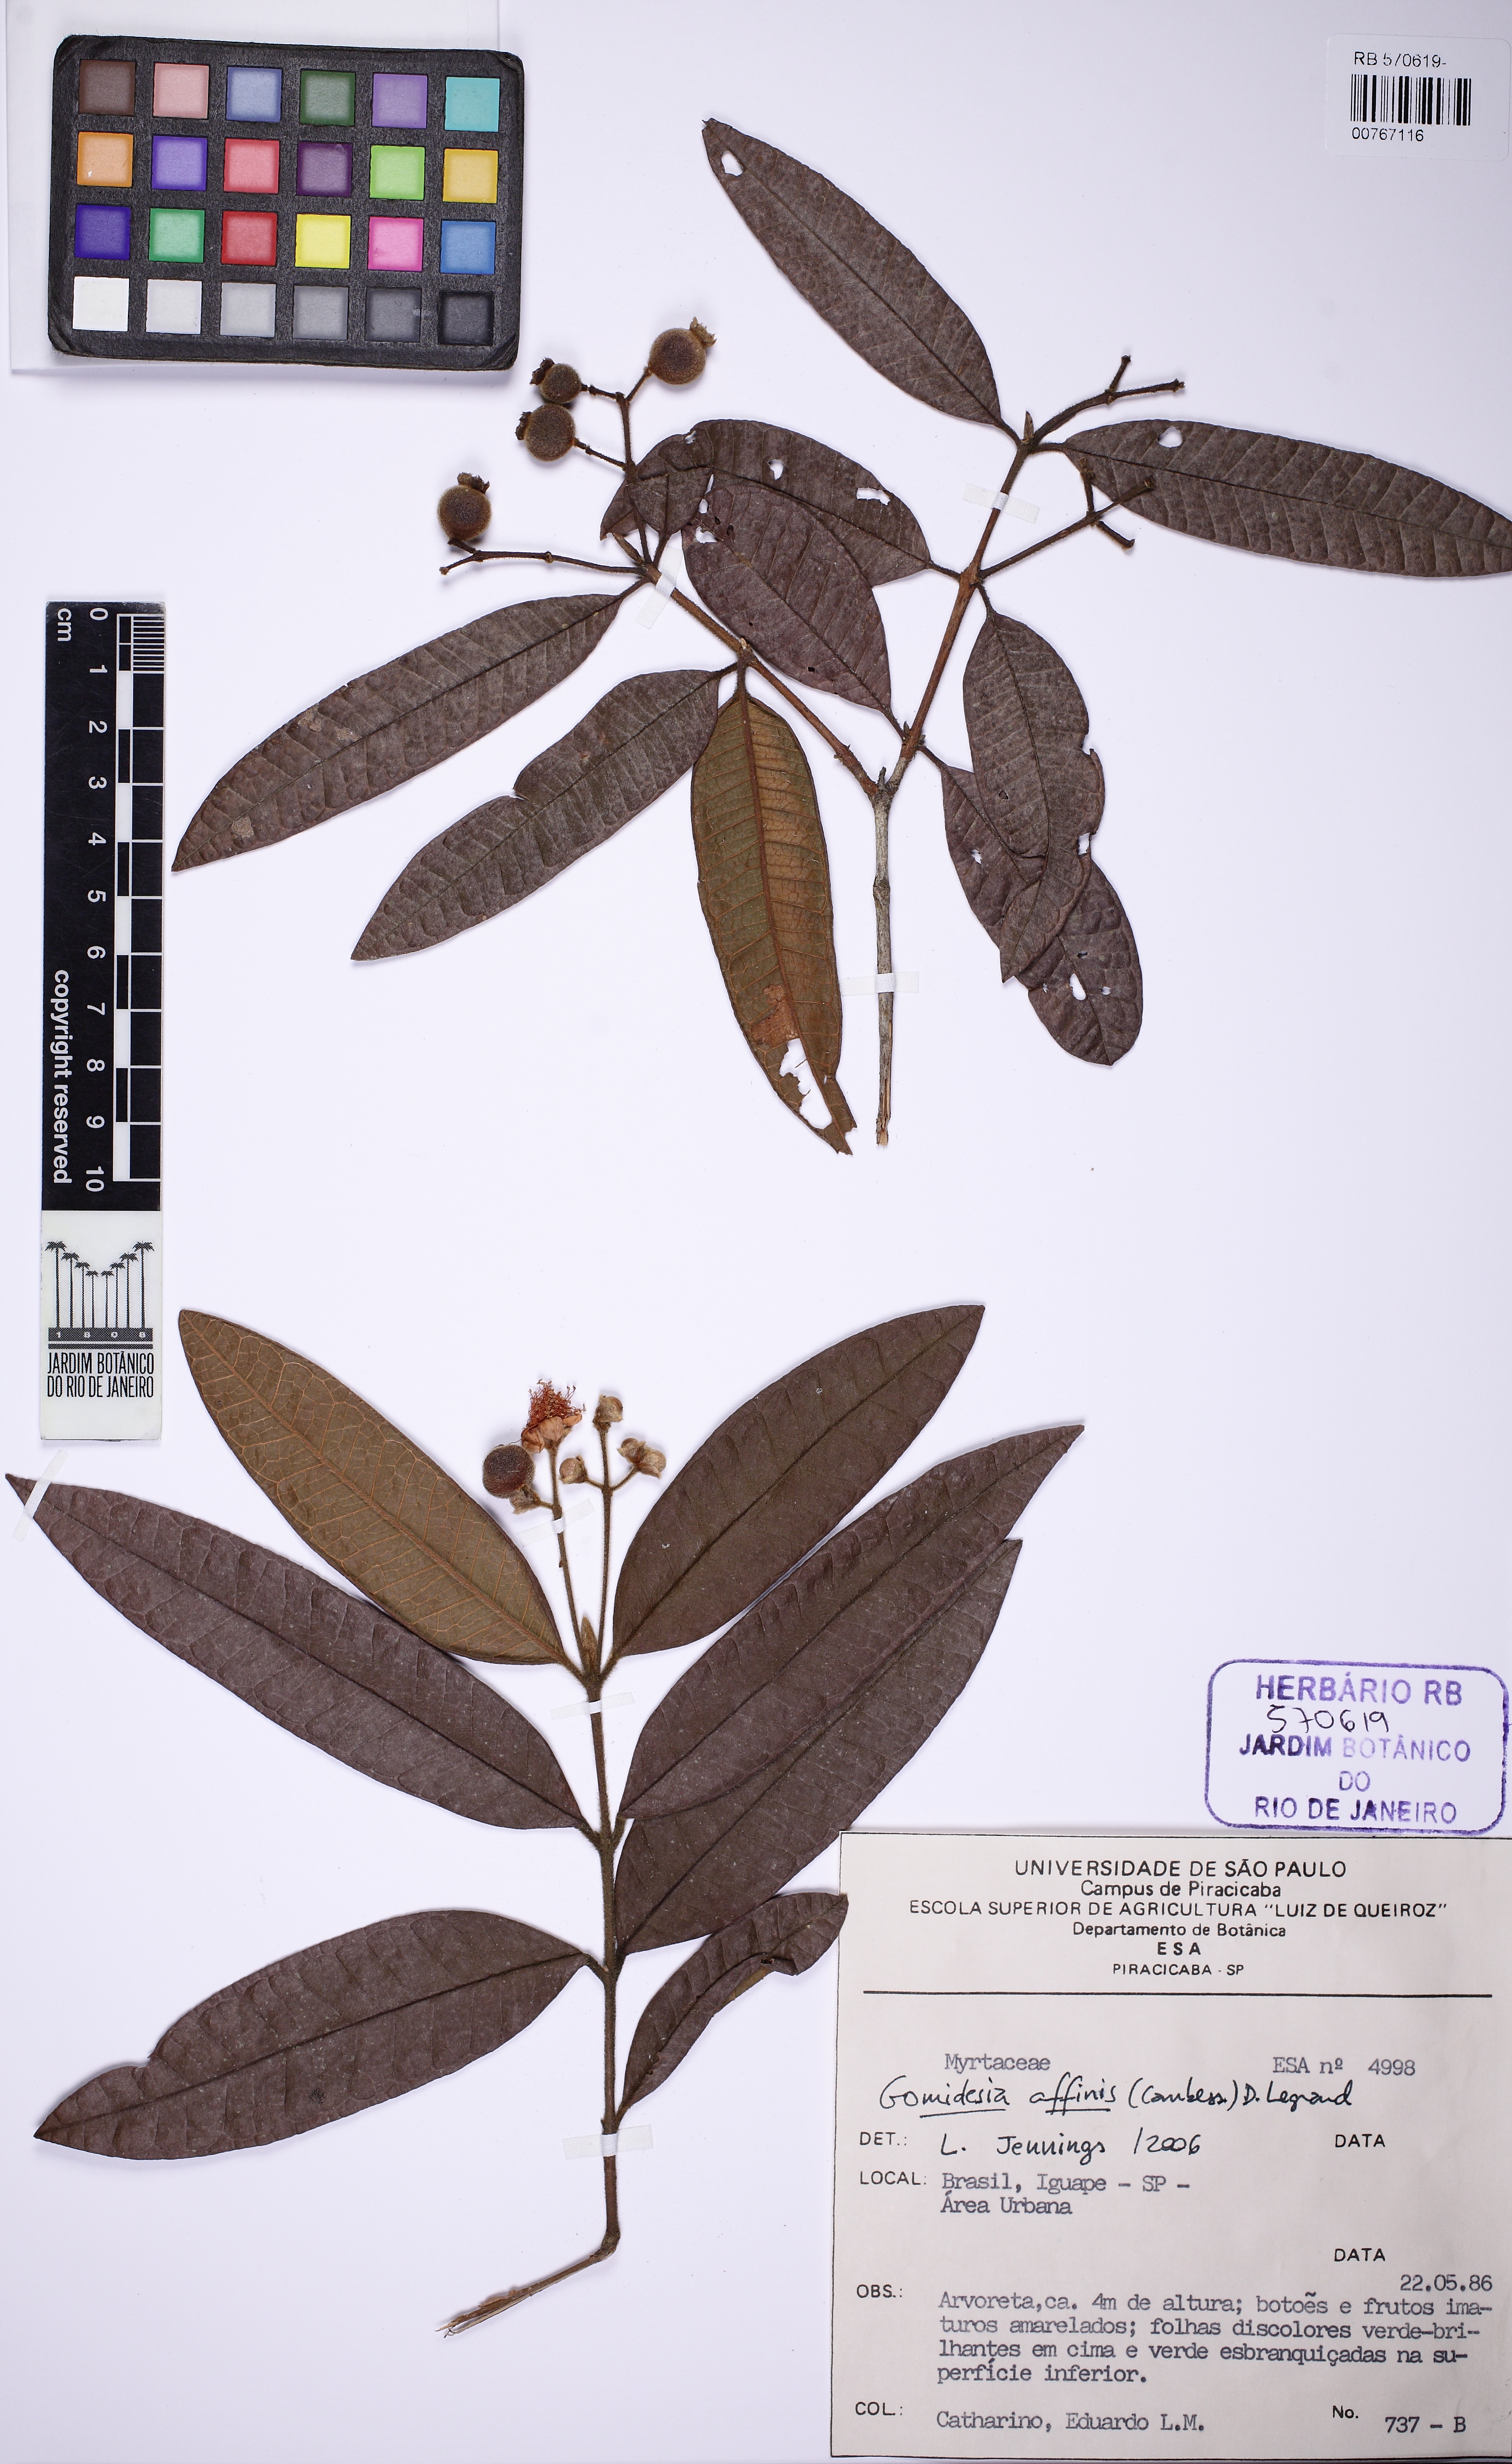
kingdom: Plantae
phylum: Tracheophyta
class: Magnoliopsida
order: Myrtales
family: Myrtaceae
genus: Myrcia
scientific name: Myrcia hebepetala
